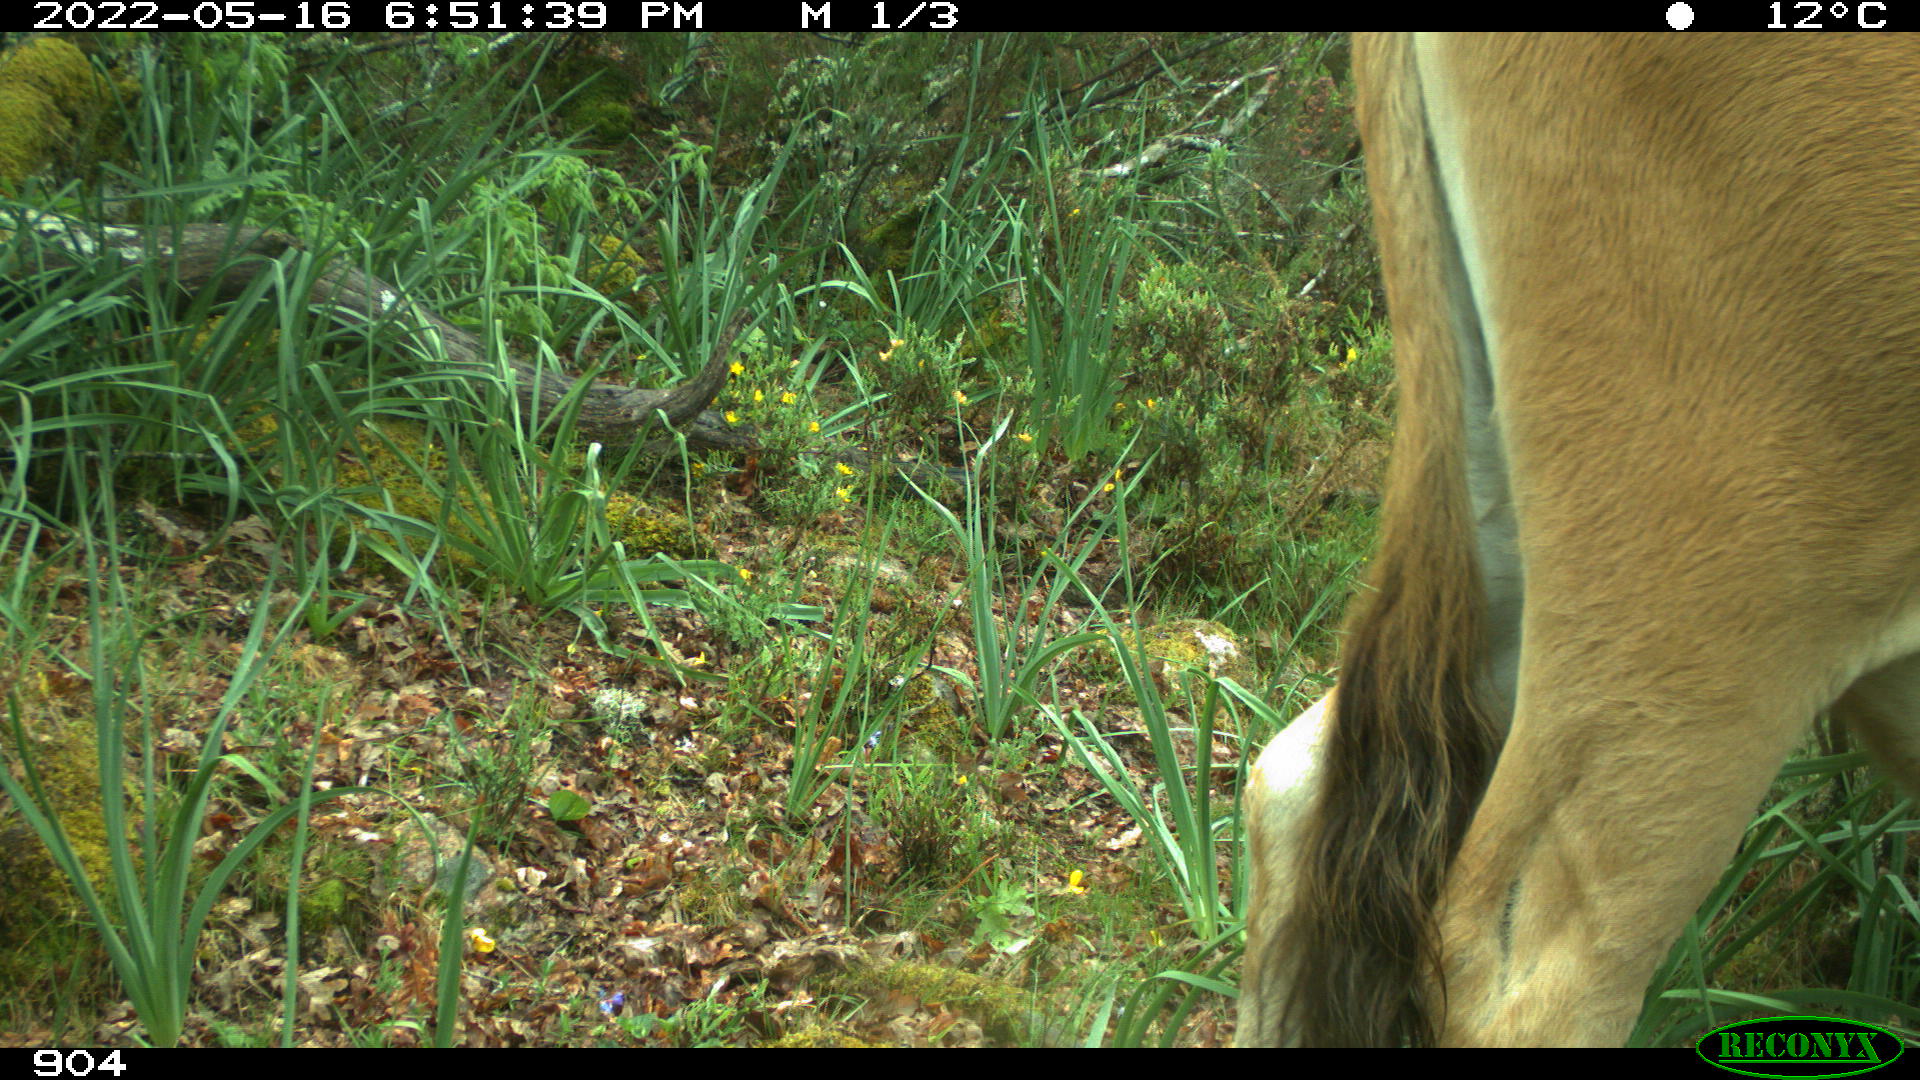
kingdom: Animalia
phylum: Chordata
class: Mammalia
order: Artiodactyla
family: Bovidae
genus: Bos
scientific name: Bos taurus
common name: Domesticated cattle
